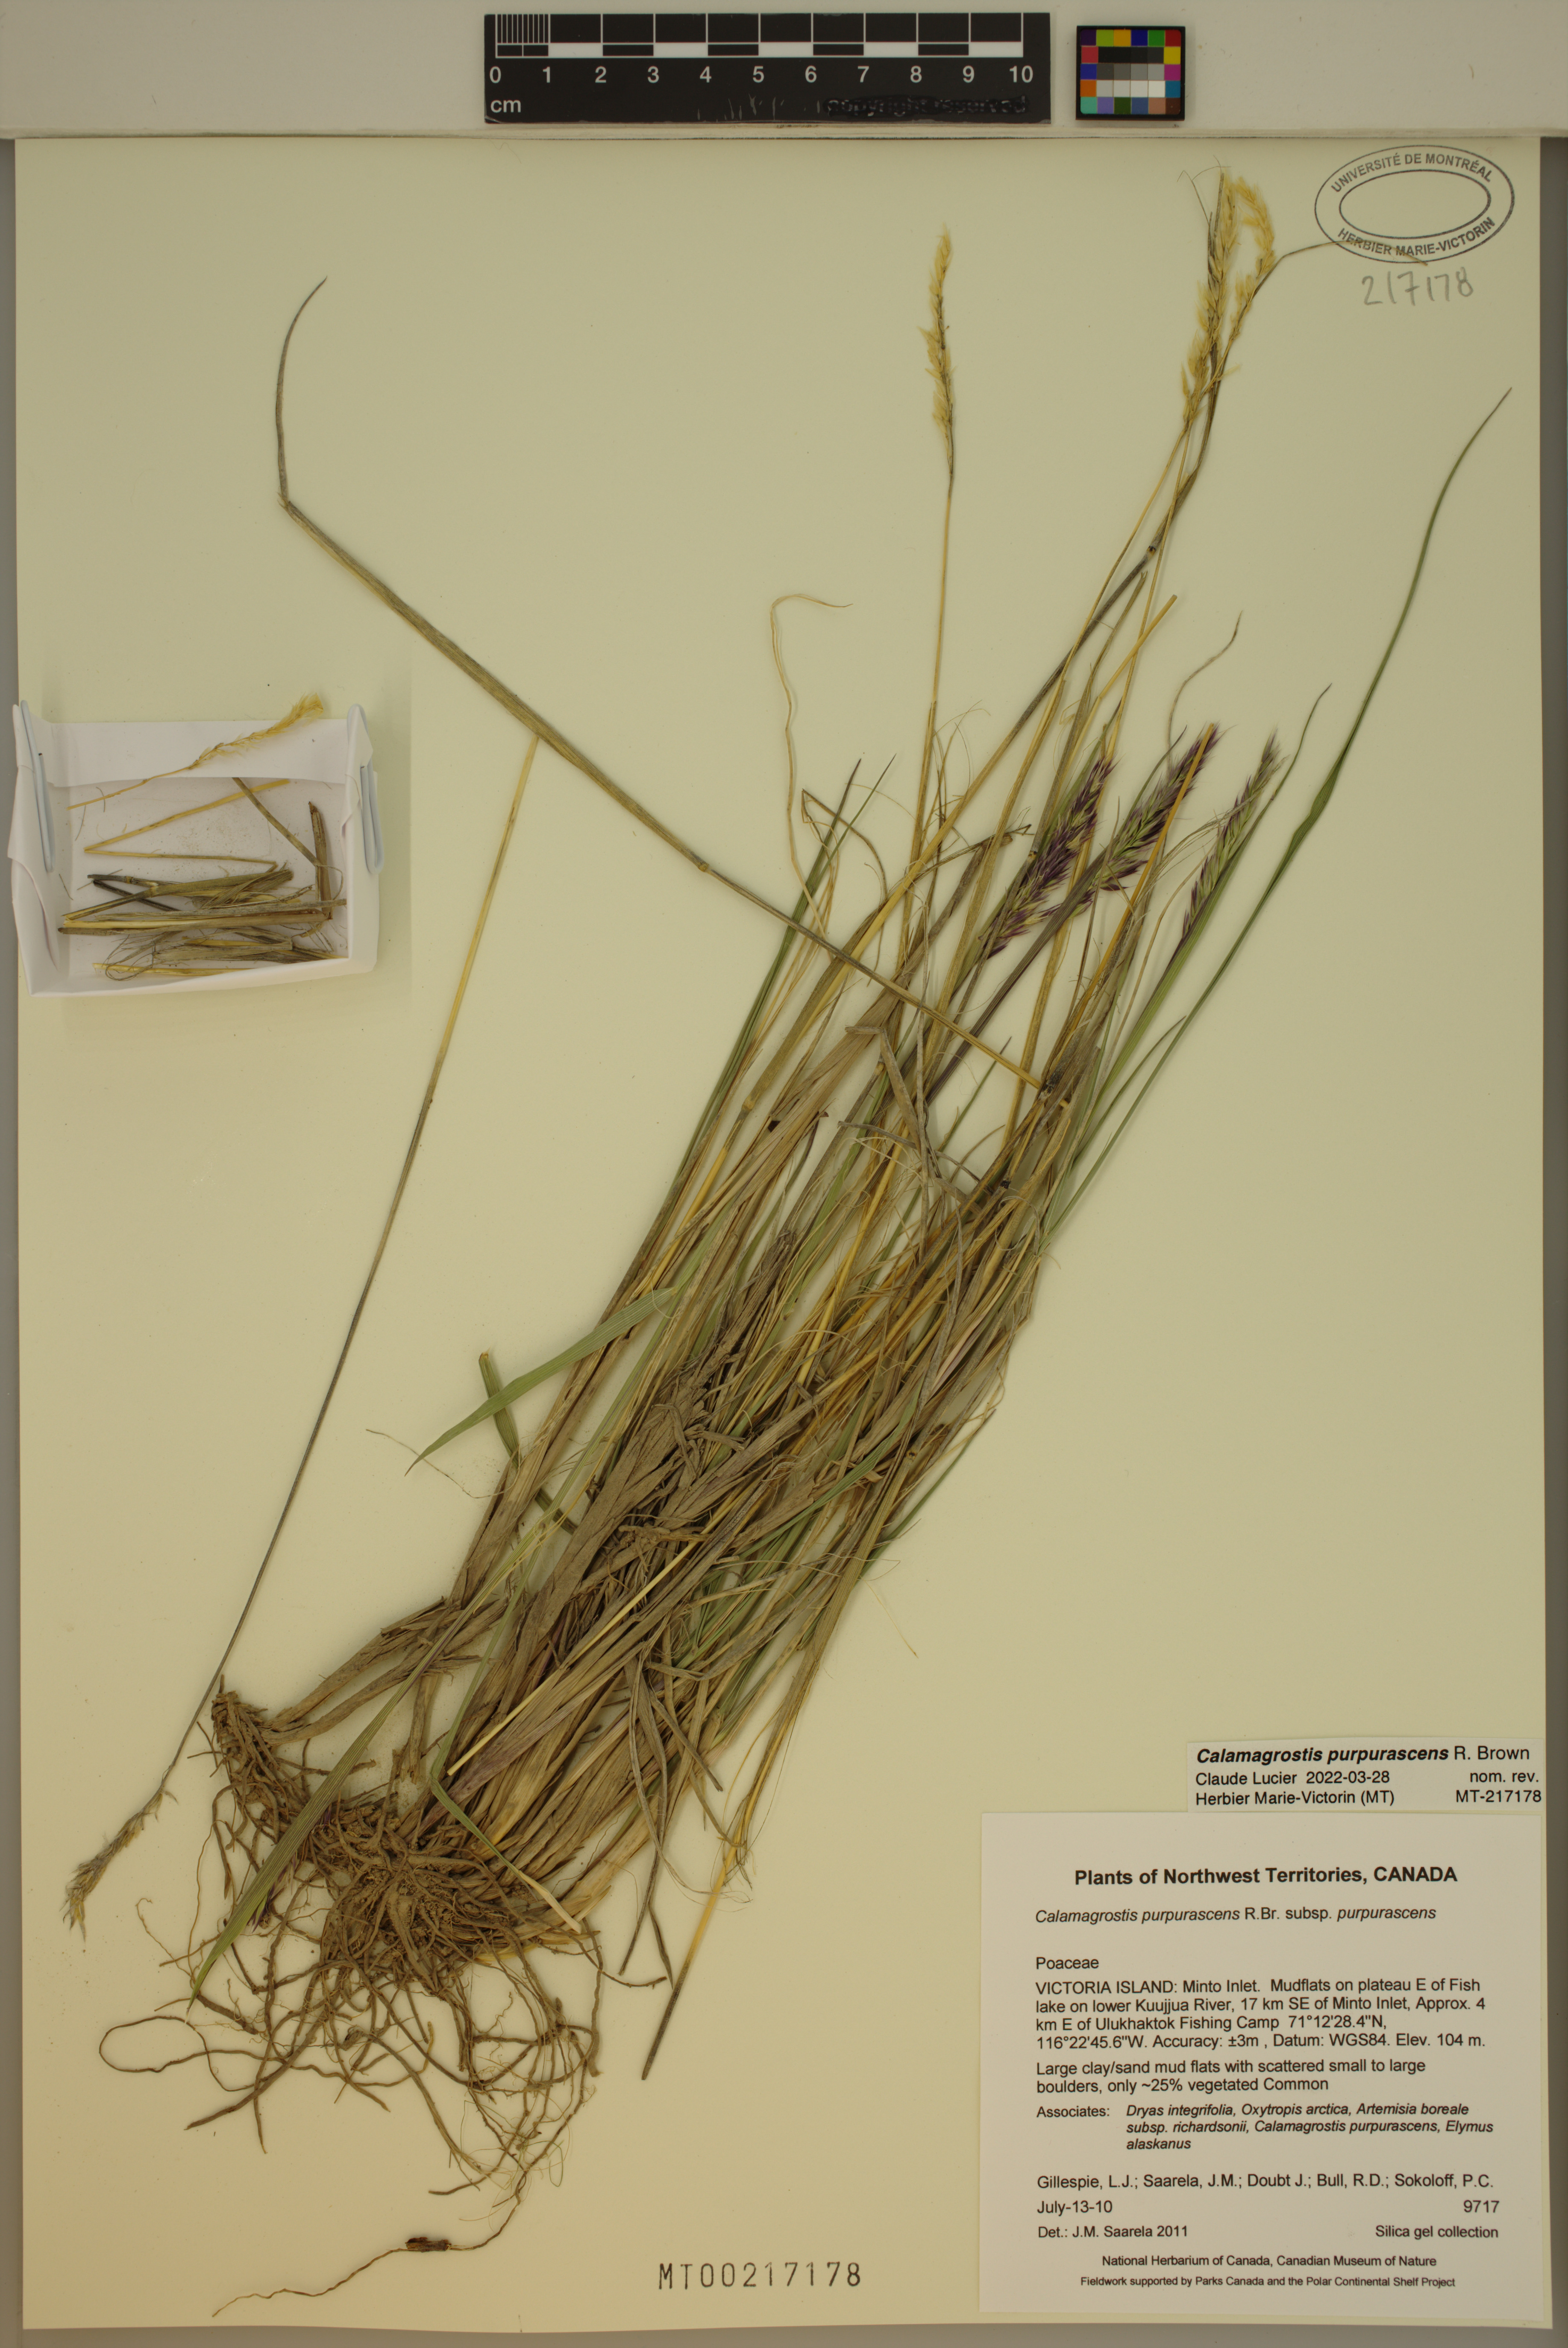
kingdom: Plantae
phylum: Tracheophyta
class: Liliopsida
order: Poales
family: Poaceae
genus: Calamagrostis
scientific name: Calamagrostis purpurascens
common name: Purple reedgrass
